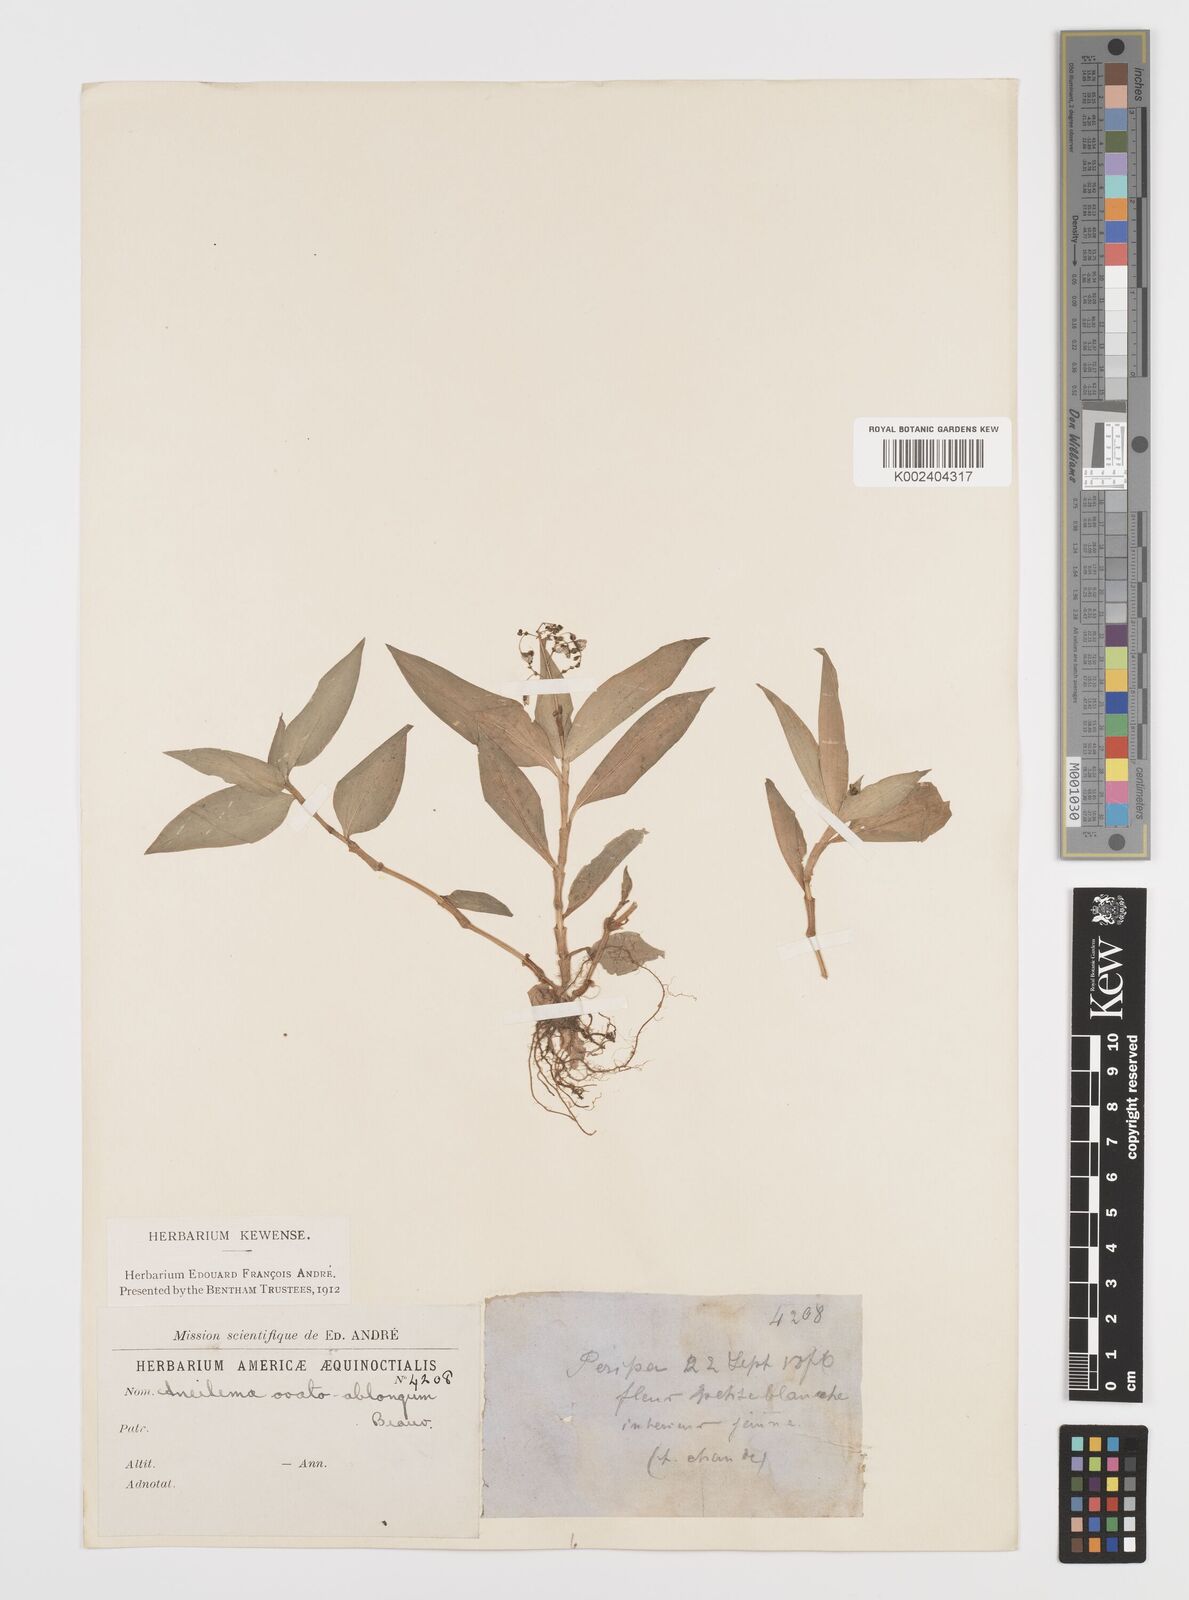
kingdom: Plantae
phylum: Tracheophyta
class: Liliopsida
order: Commelinales
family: Commelinaceae
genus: Aneilema
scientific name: Aneilema umbrosum
